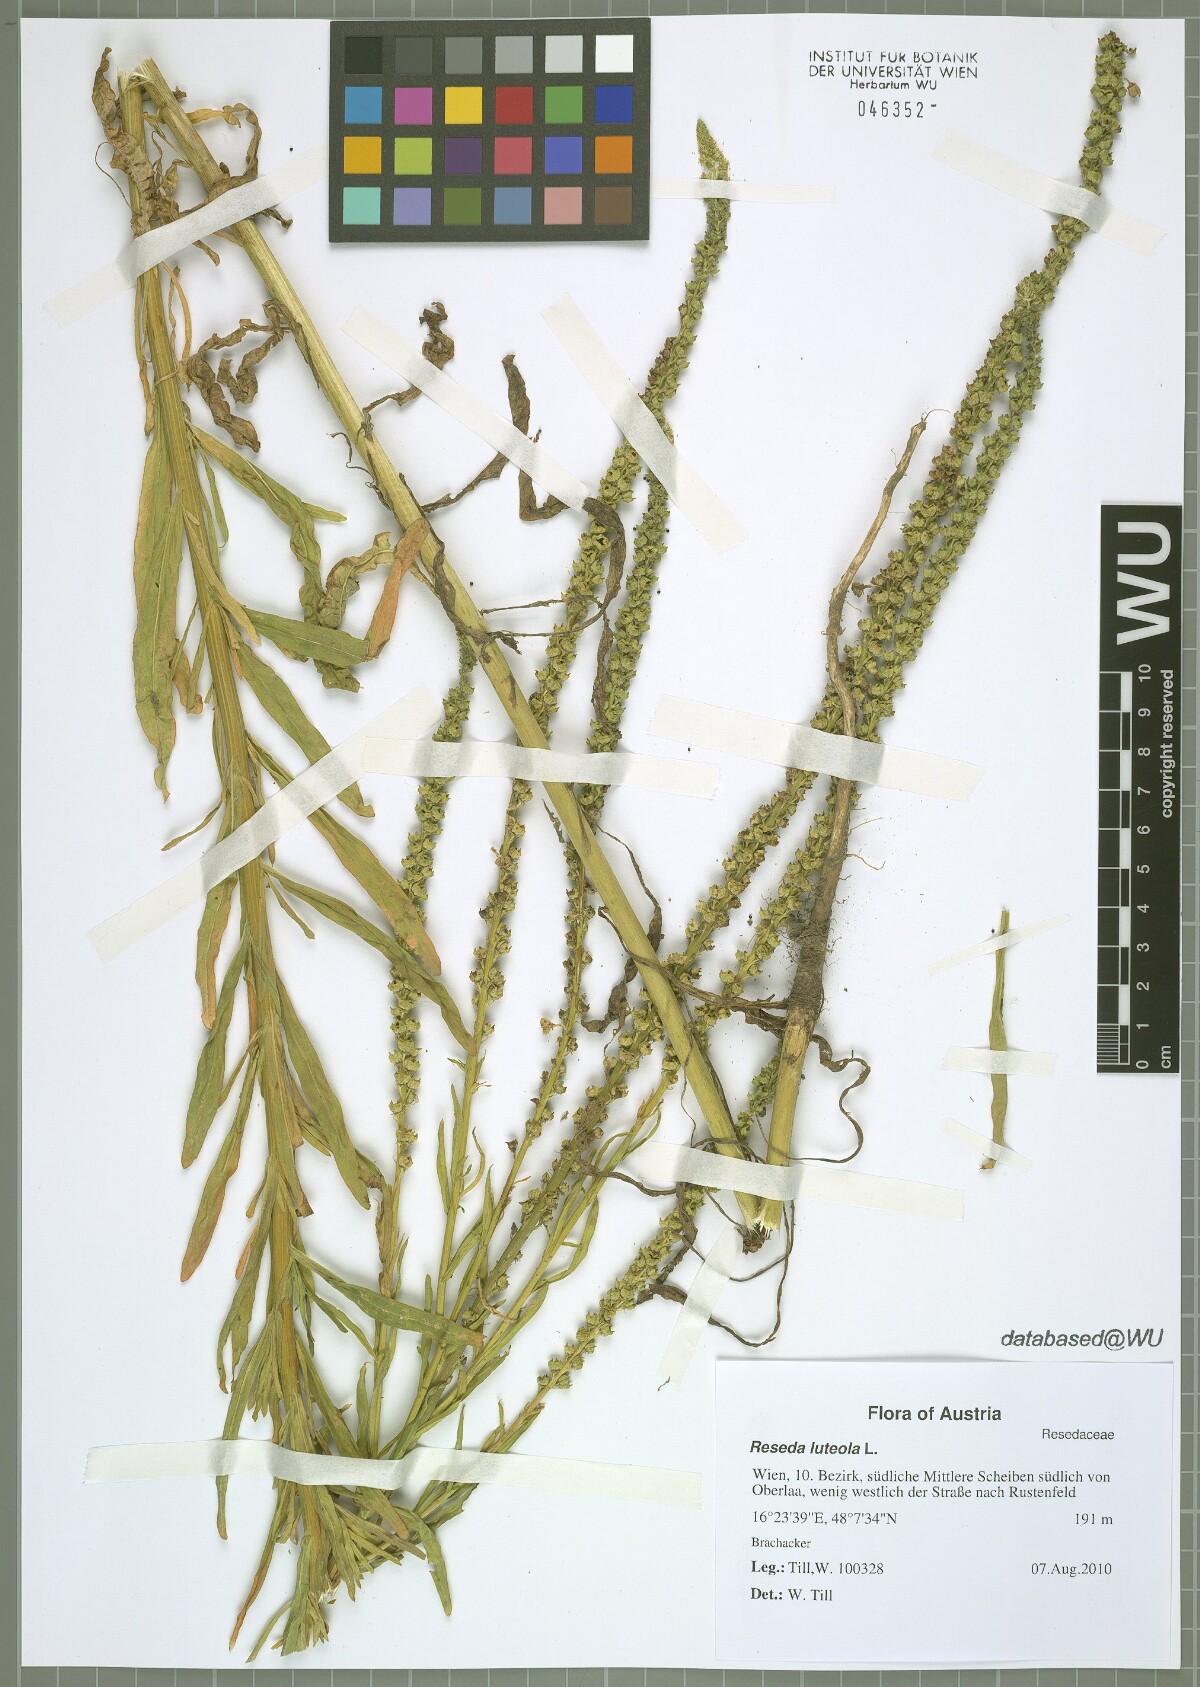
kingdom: Plantae
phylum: Tracheophyta
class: Magnoliopsida
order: Brassicales
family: Resedaceae
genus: Reseda
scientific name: Reseda luteola
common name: Weld
